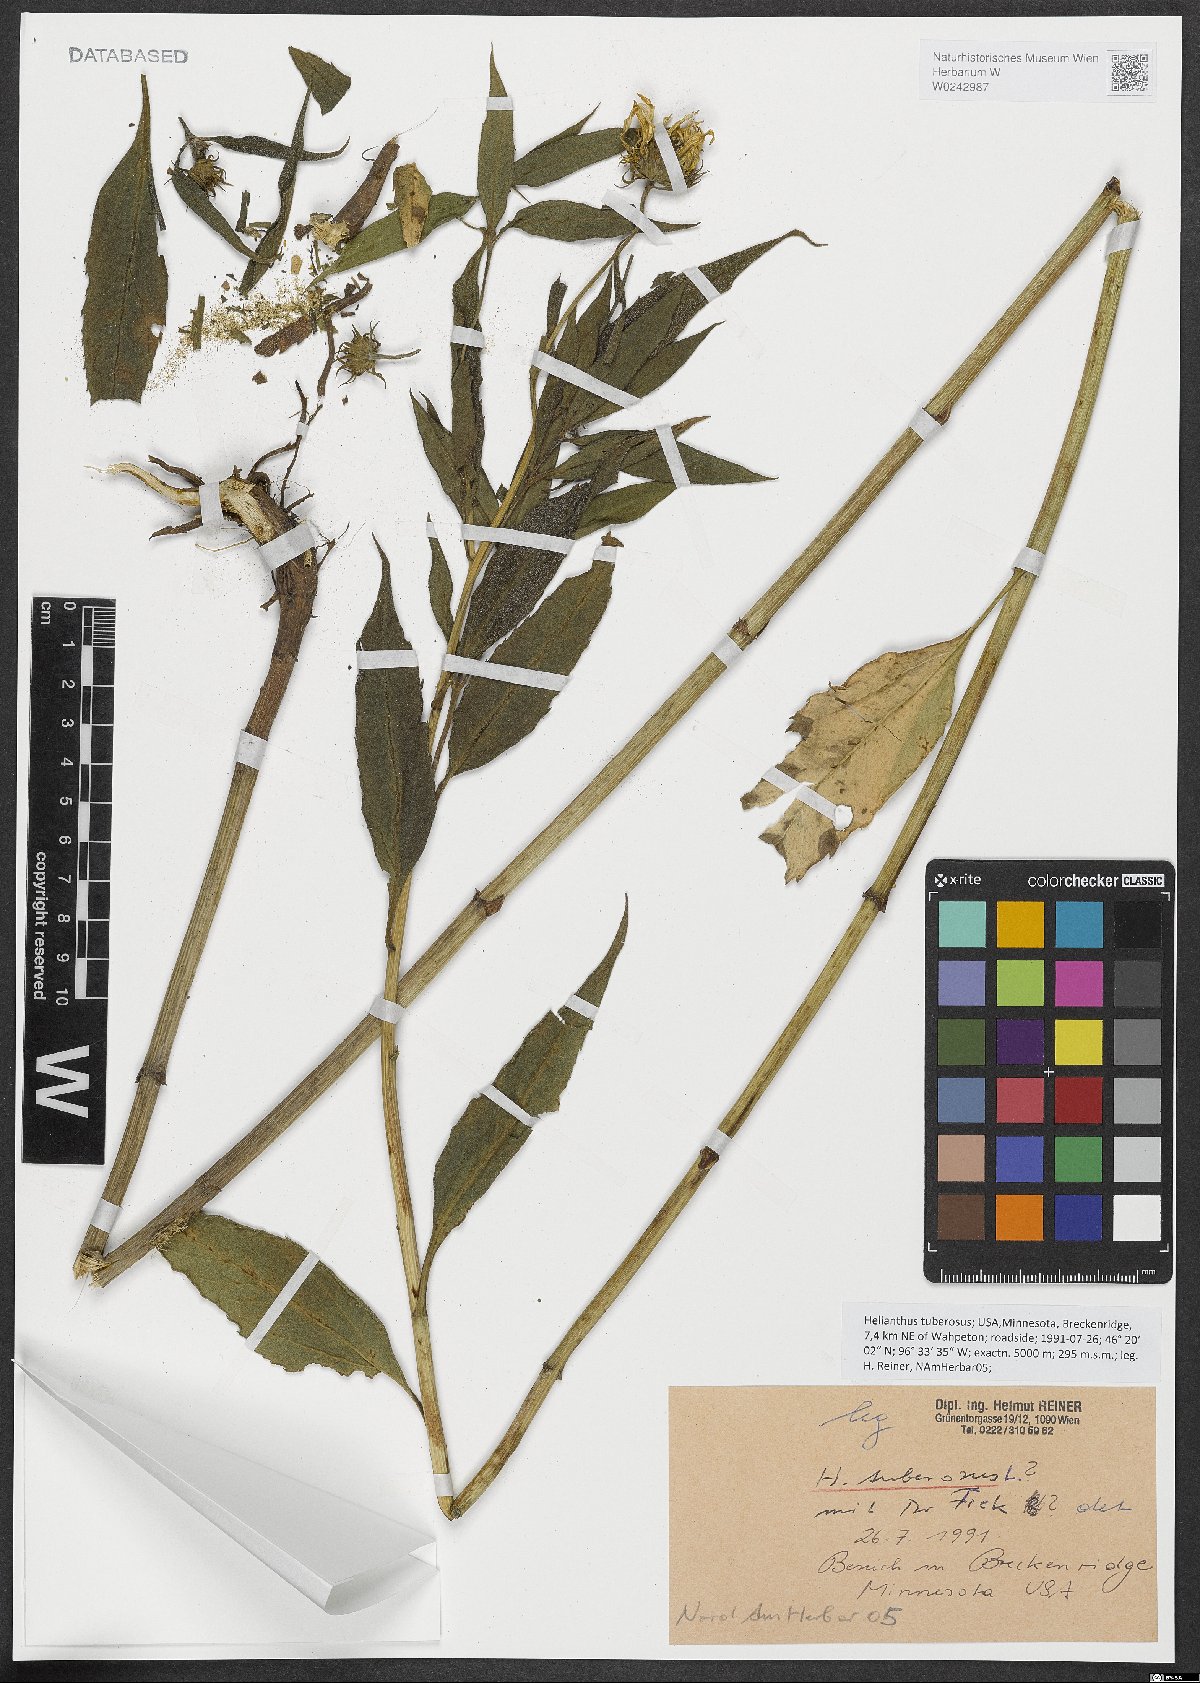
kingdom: Plantae
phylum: Tracheophyta
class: Magnoliopsida
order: Asterales
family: Asteraceae
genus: Helianthus
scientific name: Helianthus tuberosus
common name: Jerusalem artichoke
